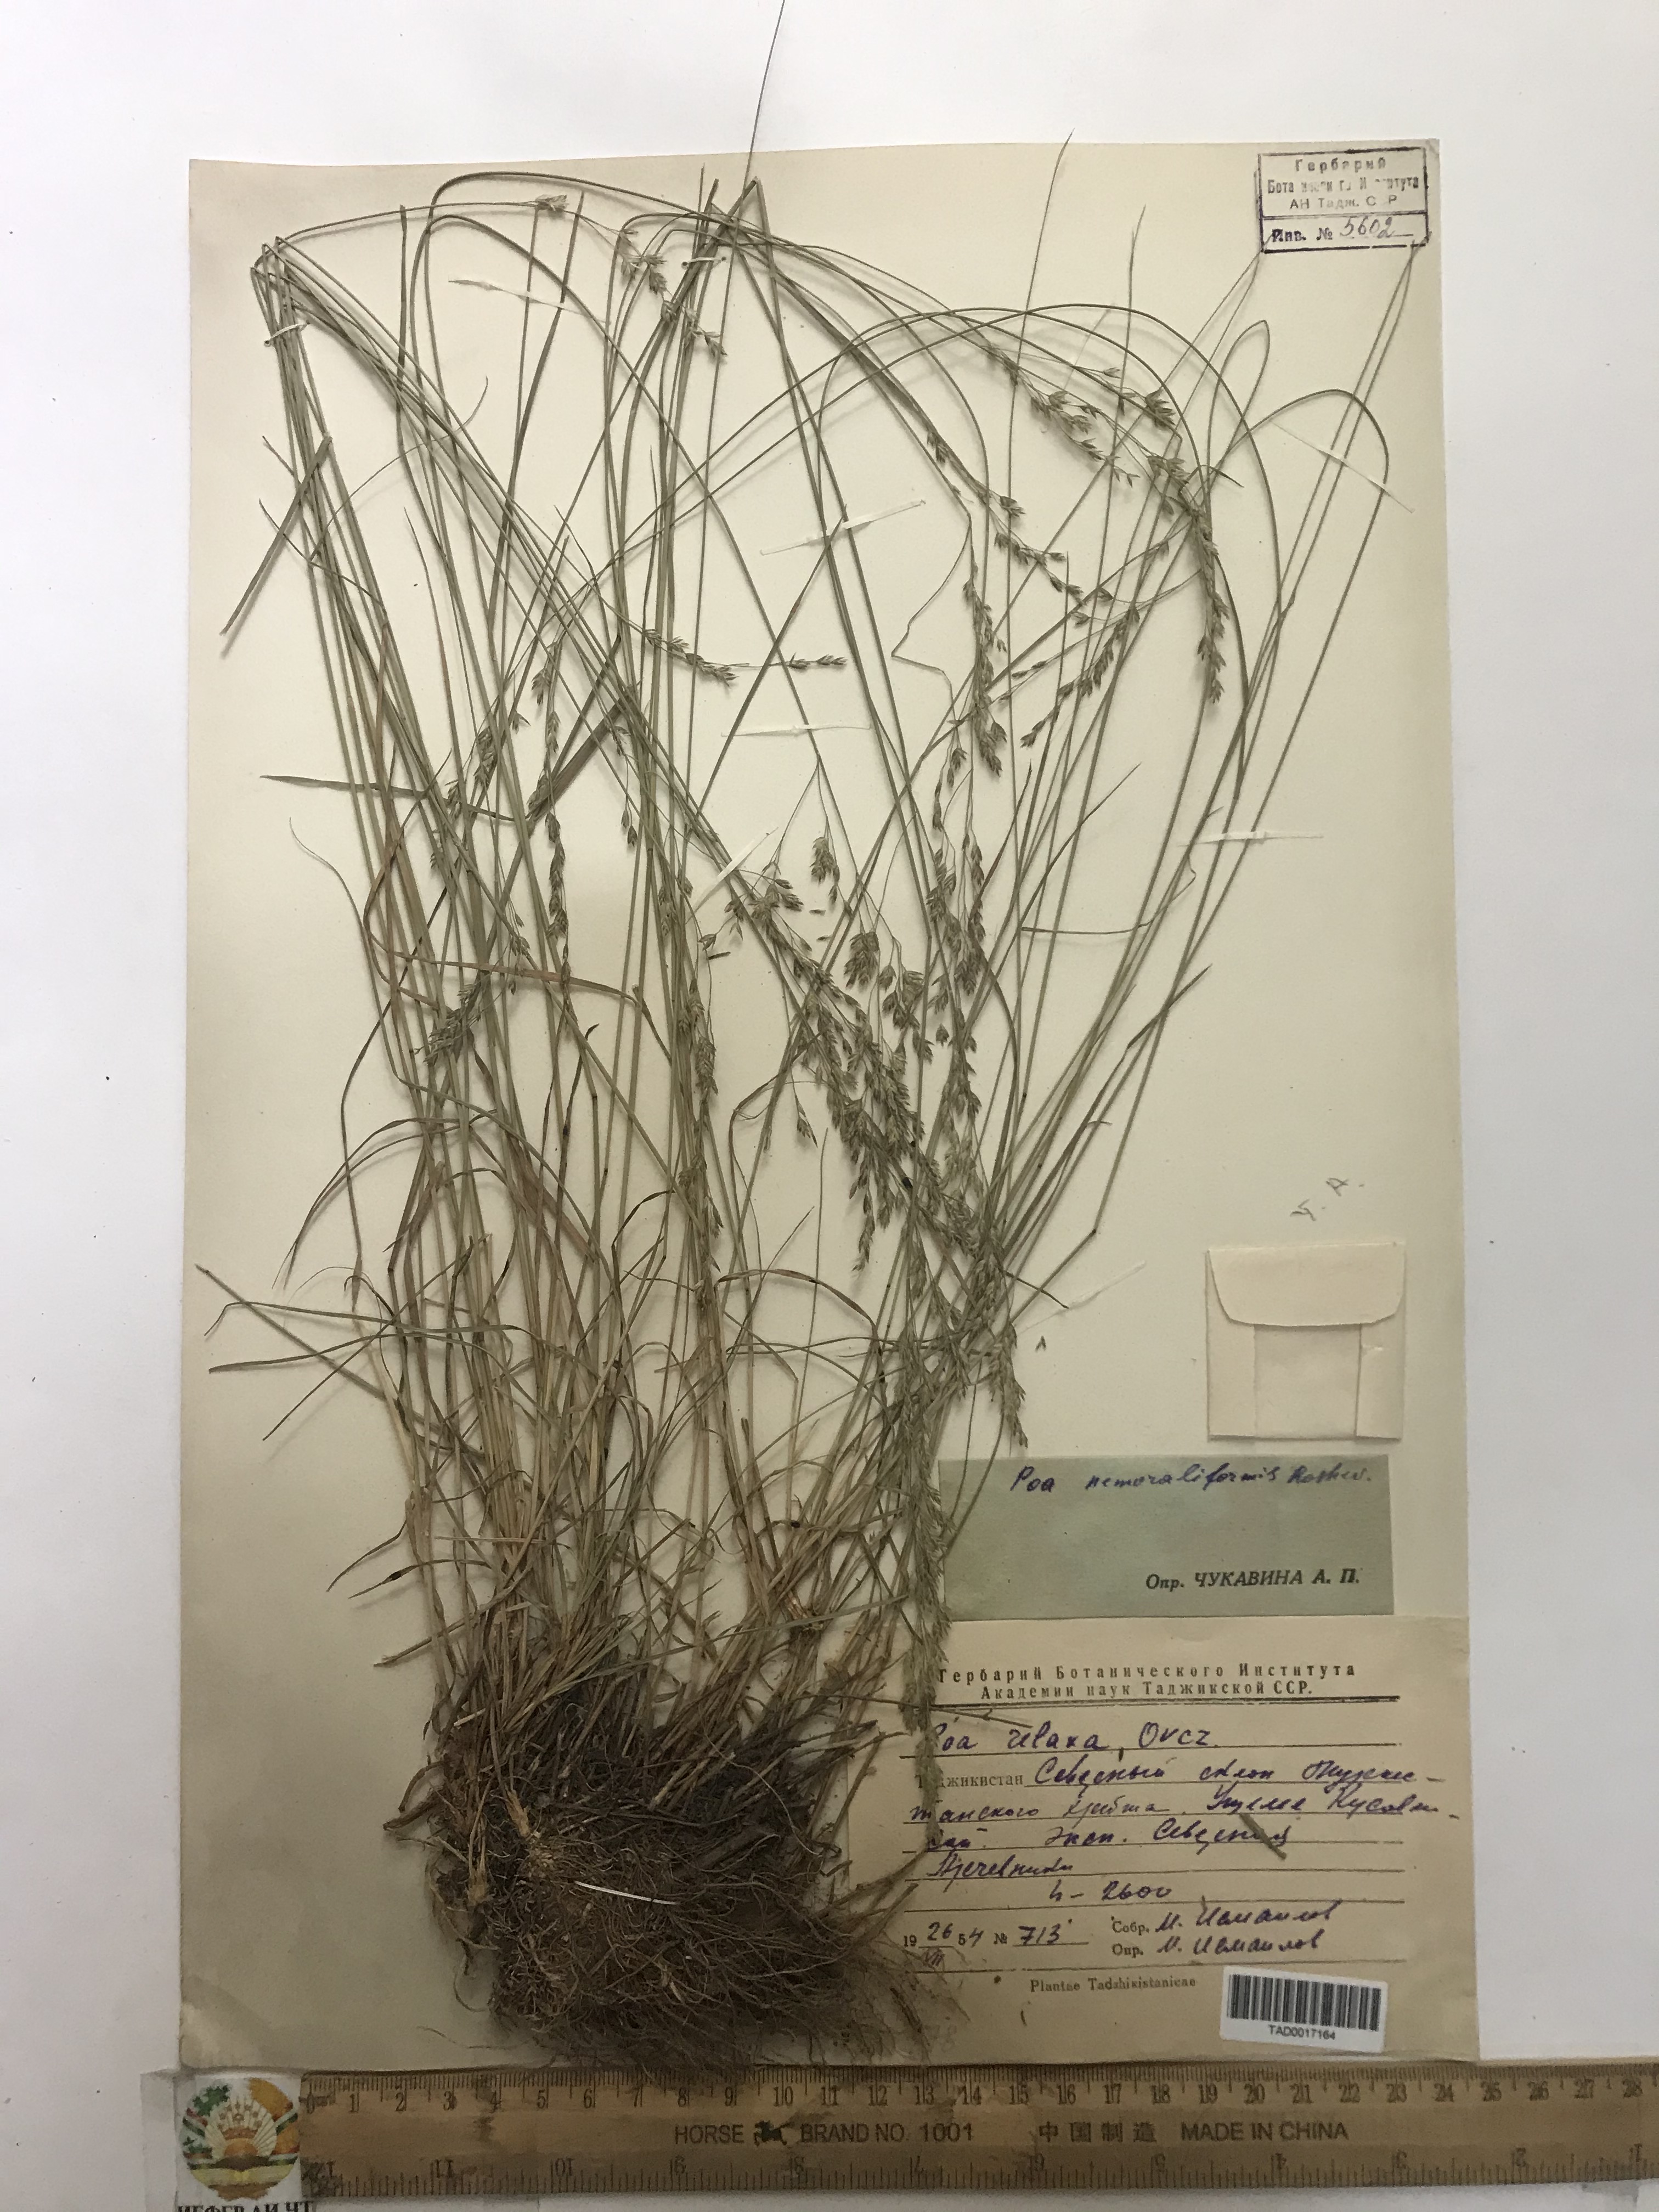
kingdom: Plantae
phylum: Tracheophyta
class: Liliopsida
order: Poales
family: Poaceae
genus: Poa
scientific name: Poa urssulensis
